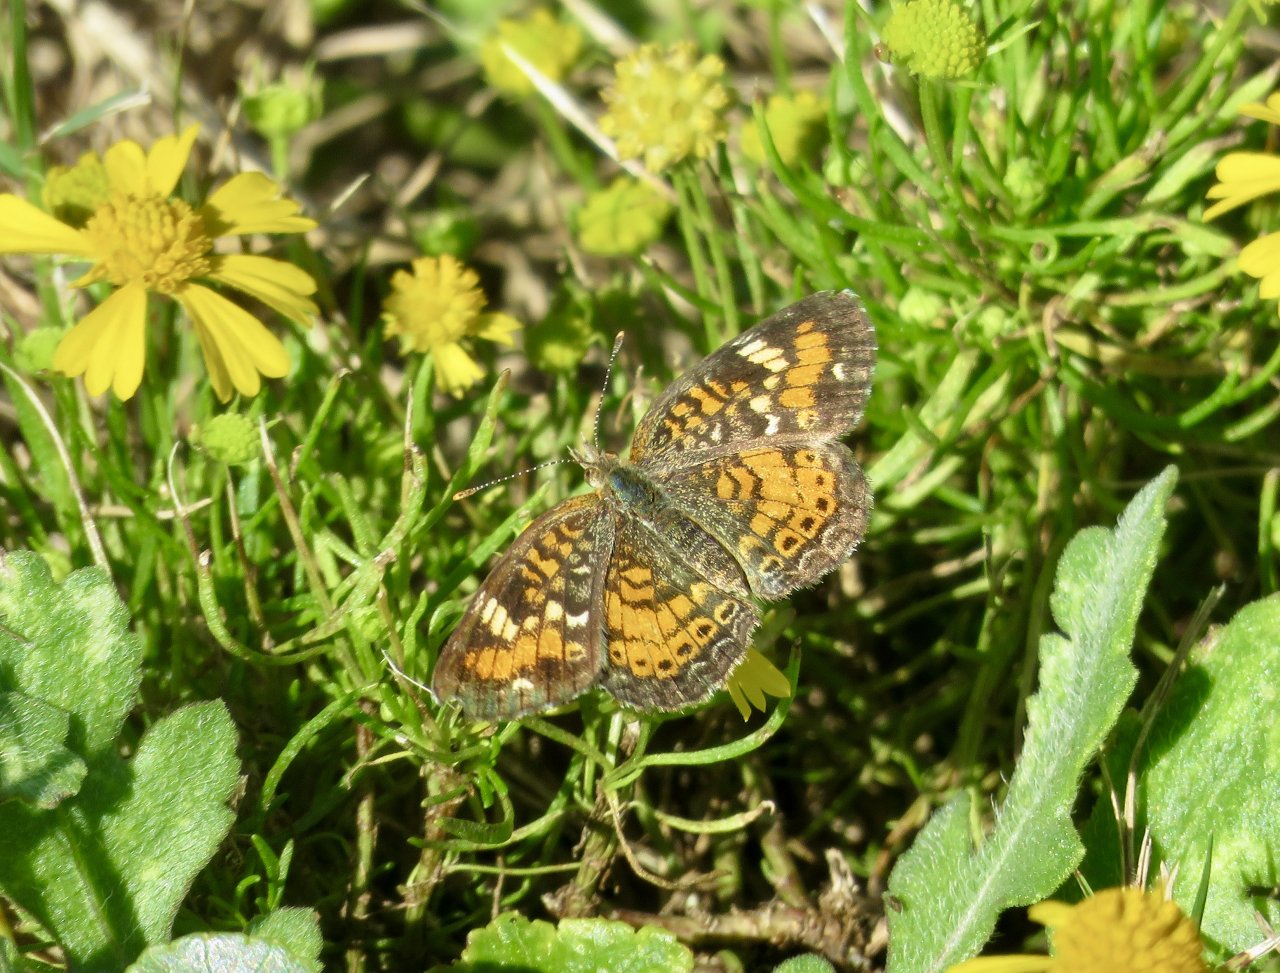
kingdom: Animalia
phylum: Arthropoda
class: Insecta
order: Lepidoptera
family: Nymphalidae
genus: Phyciodes
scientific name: Phyciodes phaon
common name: Phaon Crescent
